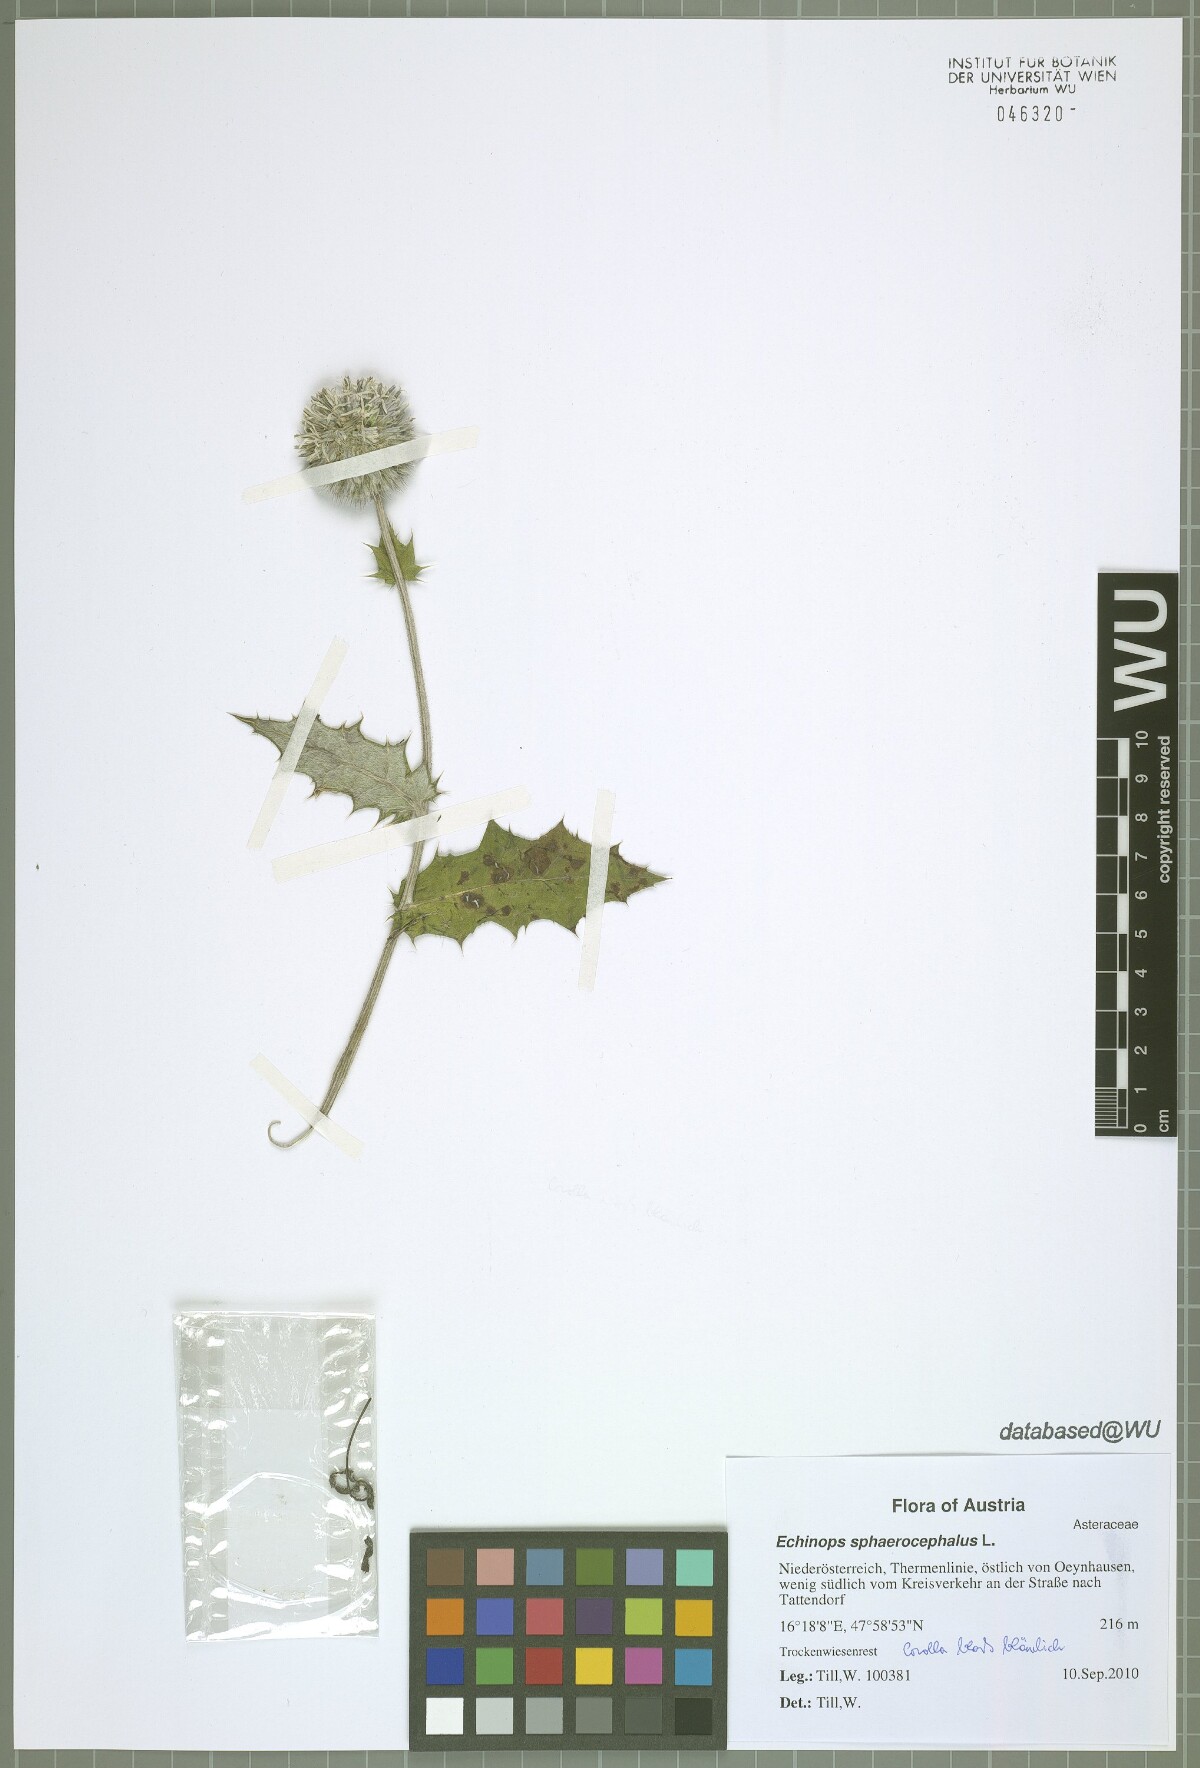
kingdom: Plantae
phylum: Tracheophyta
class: Magnoliopsida
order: Asterales
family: Asteraceae
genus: Echinops
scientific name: Echinops sphaerocephalus
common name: Glandular globe-thistle
